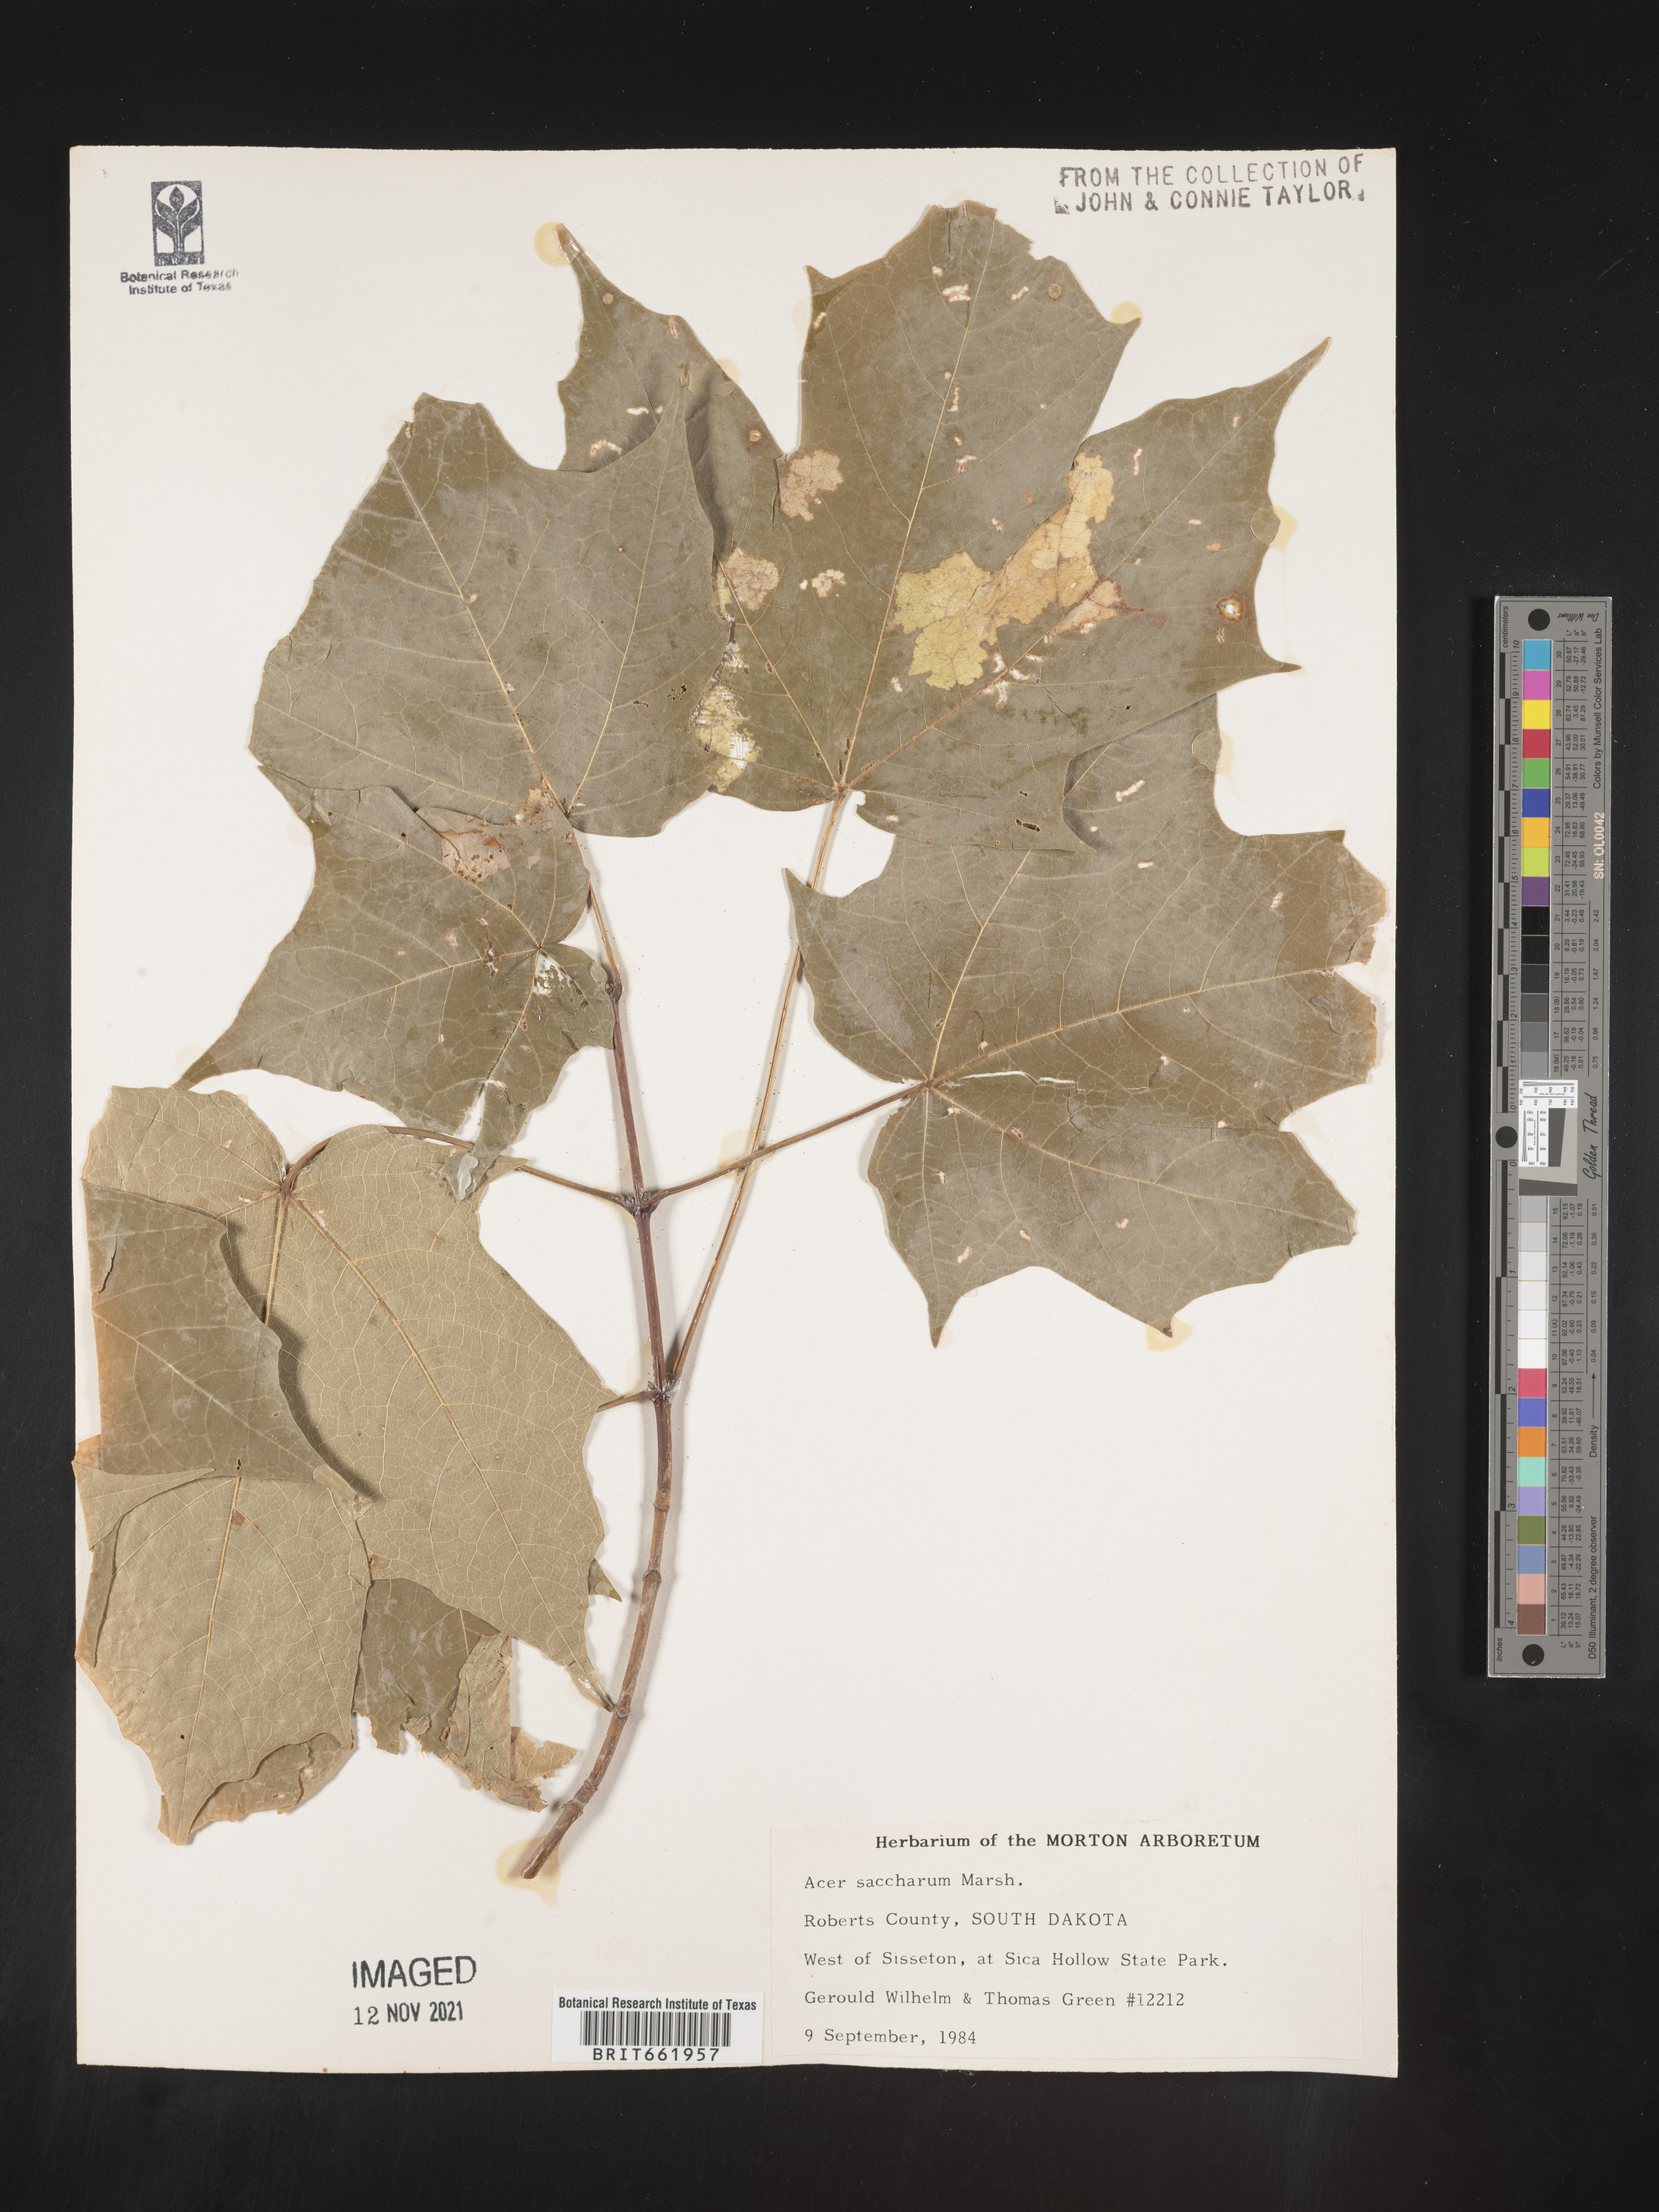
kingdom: Plantae
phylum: Tracheophyta
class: Magnoliopsida
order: Sapindales
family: Sapindaceae
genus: Acer
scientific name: Acer saccharum
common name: Sugar maple
